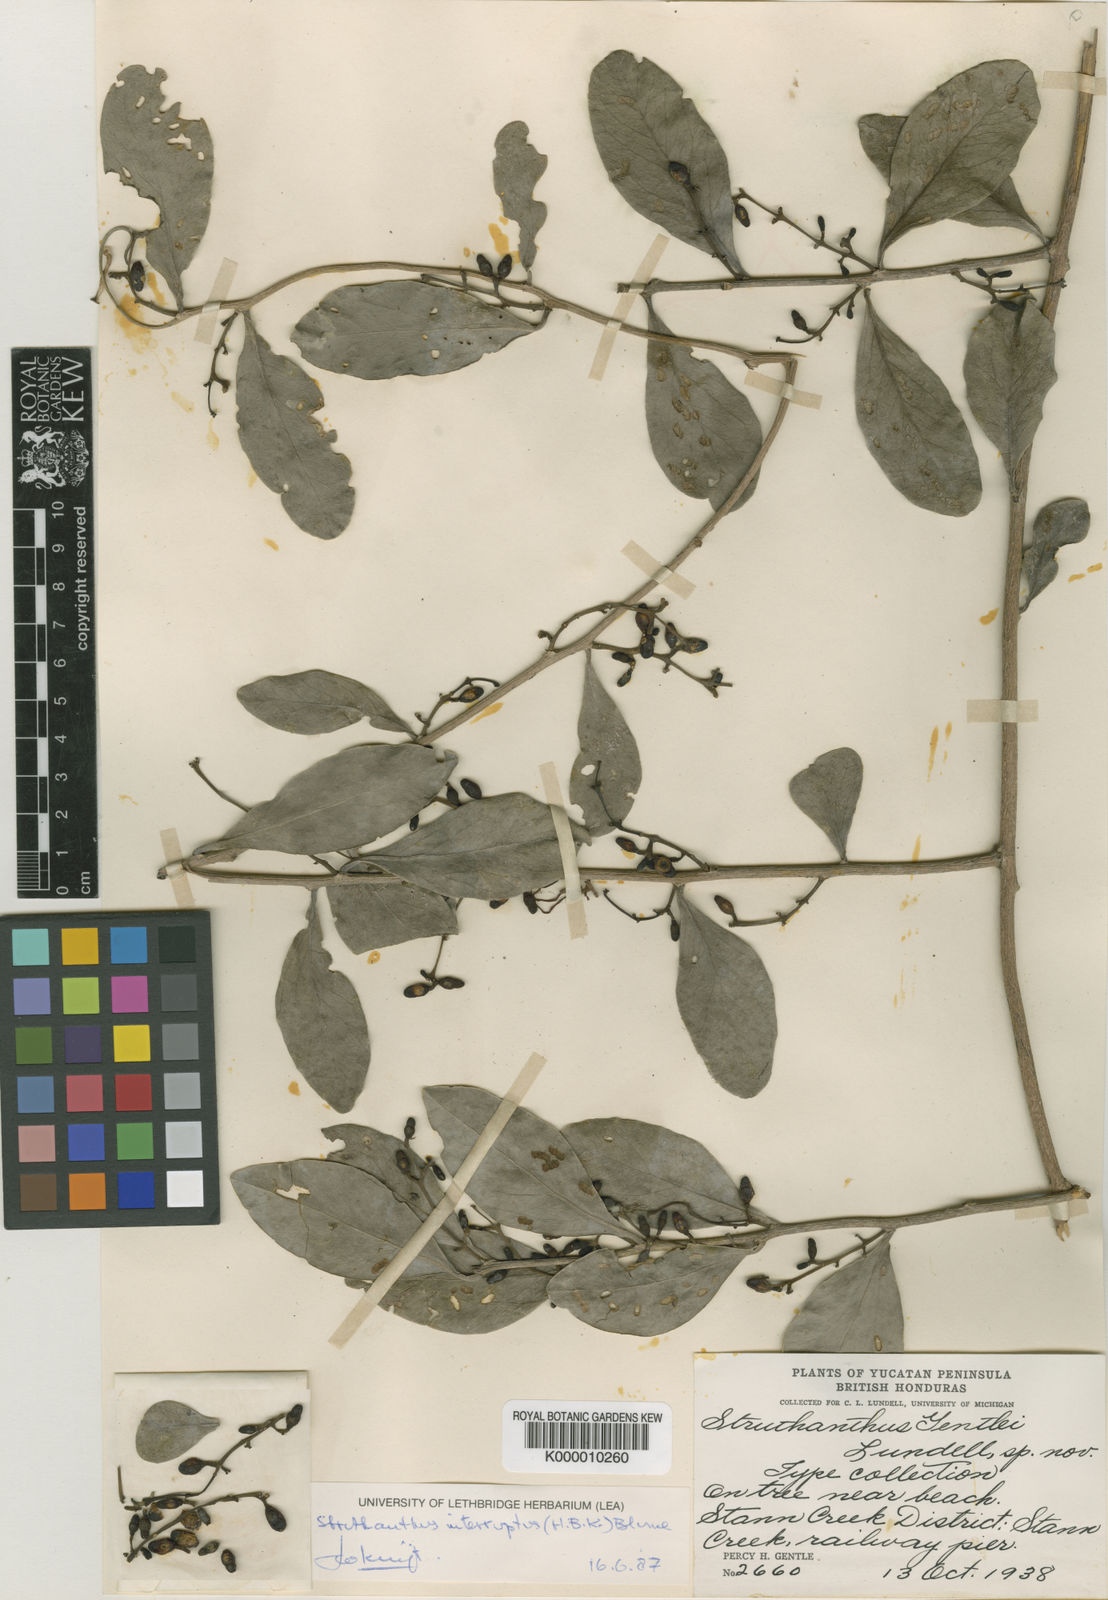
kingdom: Plantae
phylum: Tracheophyta
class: Magnoliopsida
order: Santalales
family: Loranthaceae
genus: Struthanthus
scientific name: Struthanthus cassythoides
